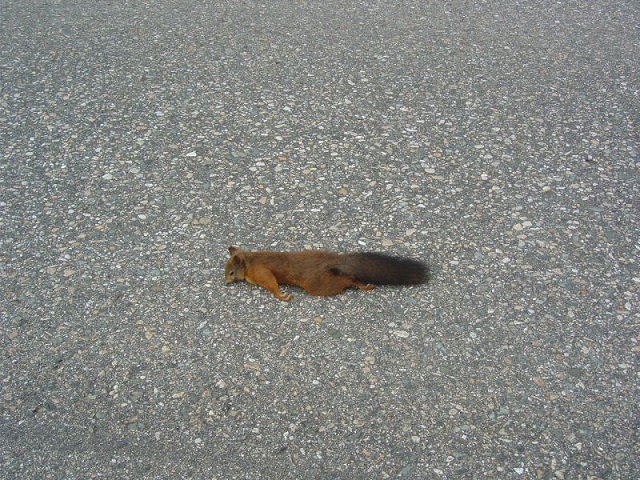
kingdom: Animalia
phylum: Chordata
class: Mammalia
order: Rodentia
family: Sciuridae
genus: Sciurus
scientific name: Sciurus vulgaris
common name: Eurasian red squirrel
